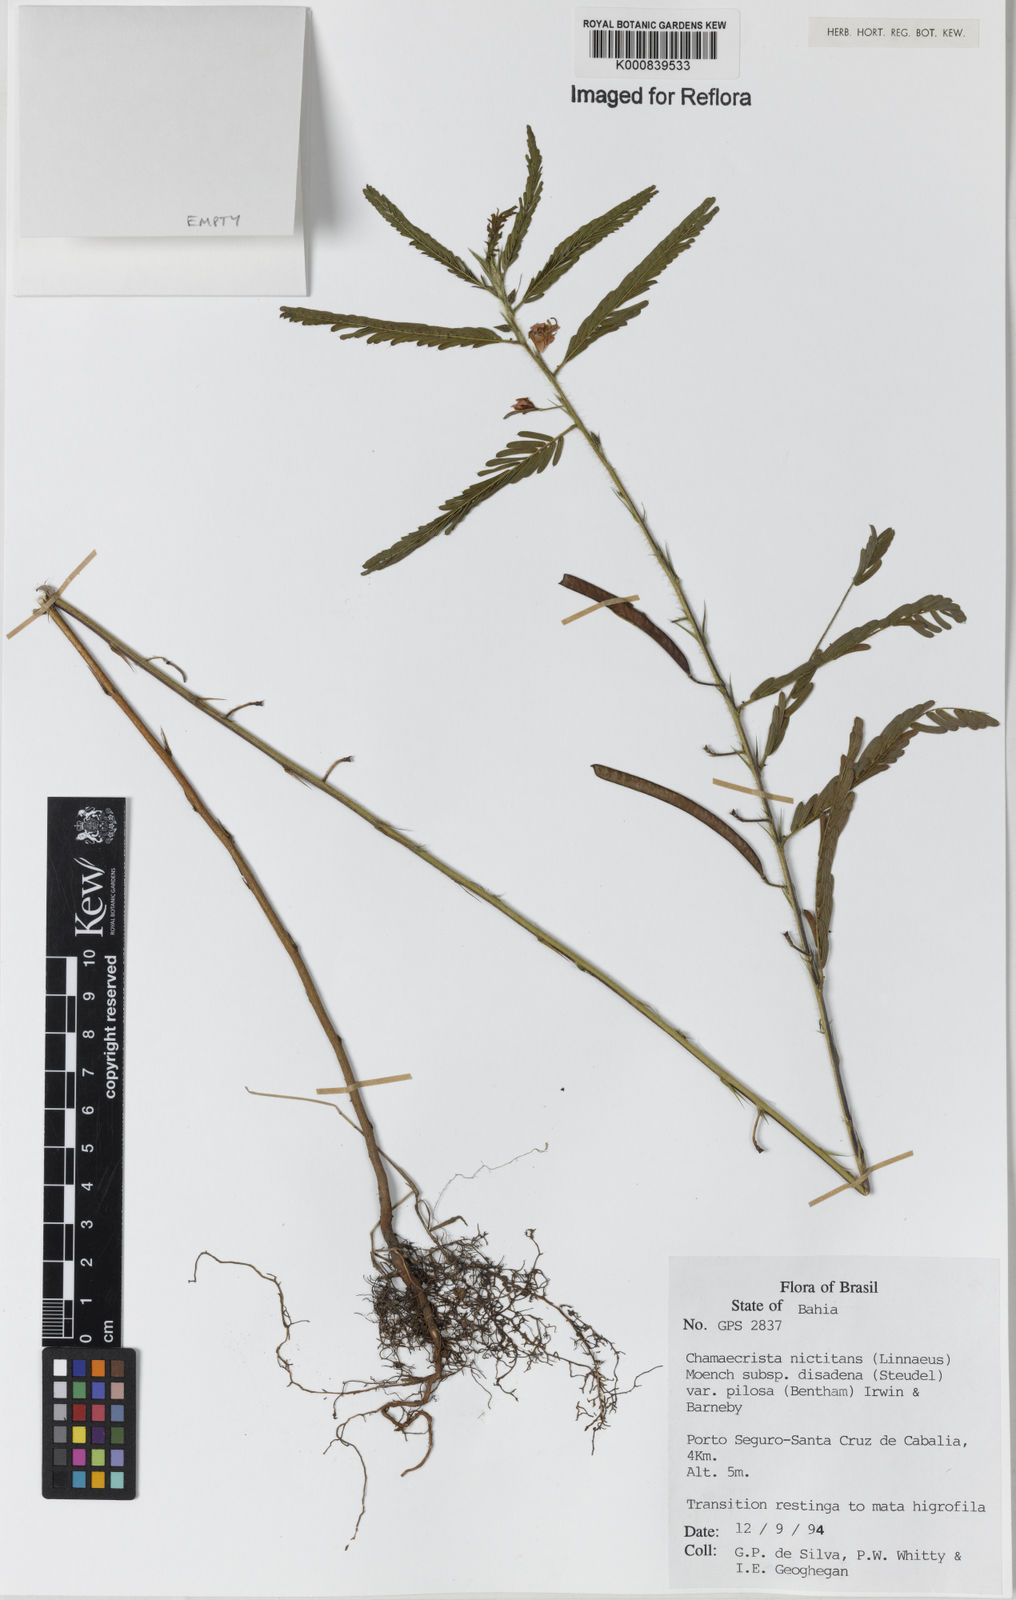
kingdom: Plantae
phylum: Tracheophyta
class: Magnoliopsida
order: Fabales
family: Fabaceae
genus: Chamaecrista
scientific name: Chamaecrista nictitans
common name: Sensitive cassia
